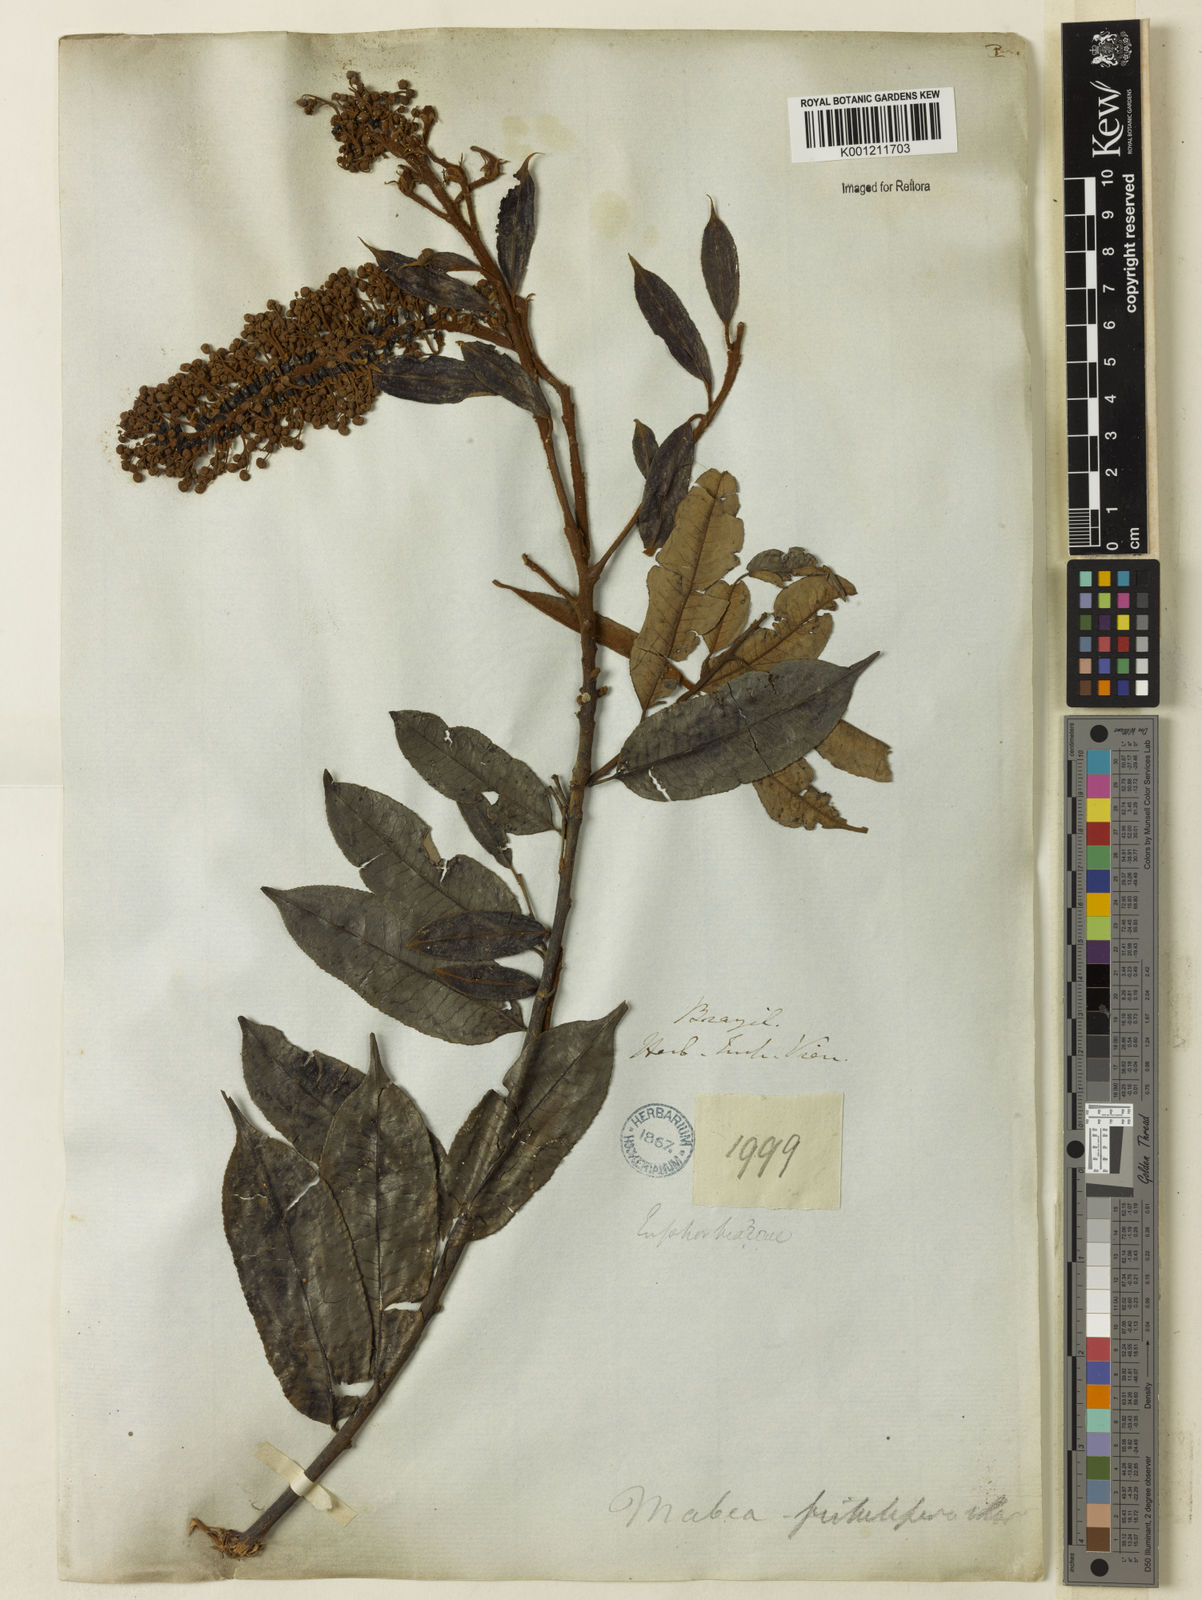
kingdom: Plantae
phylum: Tracheophyta
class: Magnoliopsida
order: Malpighiales
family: Euphorbiaceae
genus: Mabea
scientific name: Mabea fistulifera
